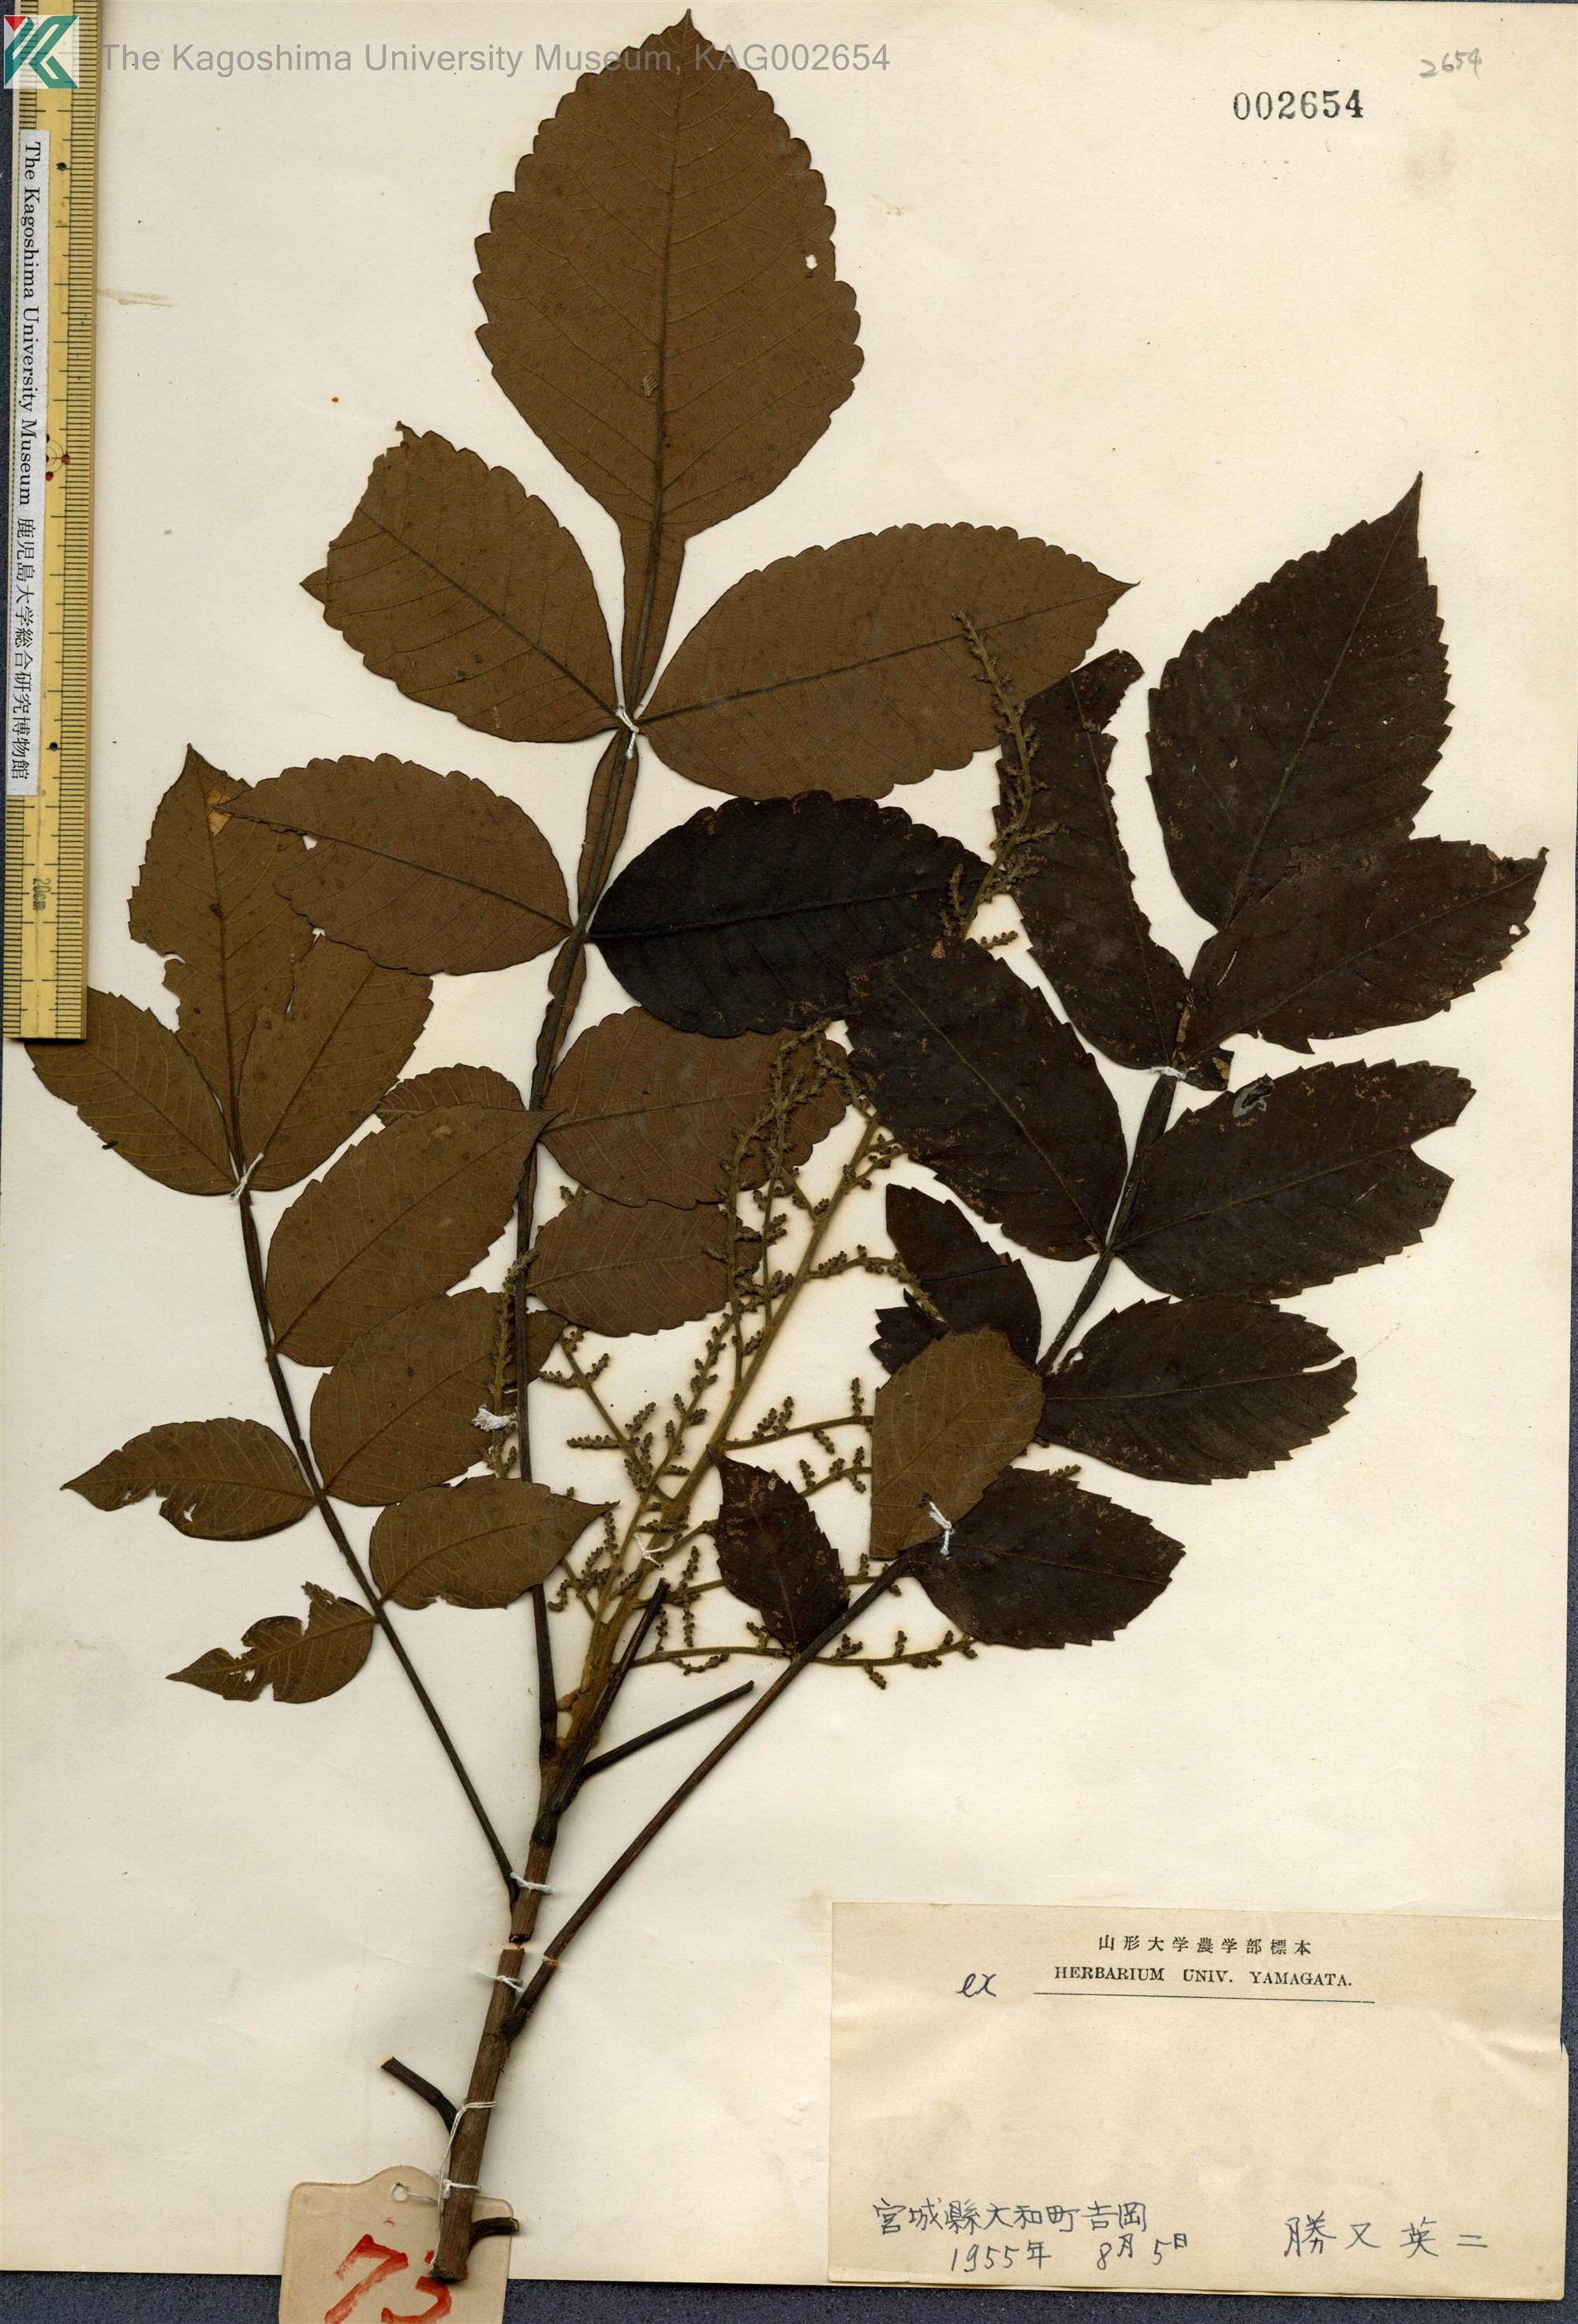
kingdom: Plantae
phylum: Tracheophyta
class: Magnoliopsida
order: Sapindales
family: Simaroubaceae
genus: Brucea
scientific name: Brucea javanica
